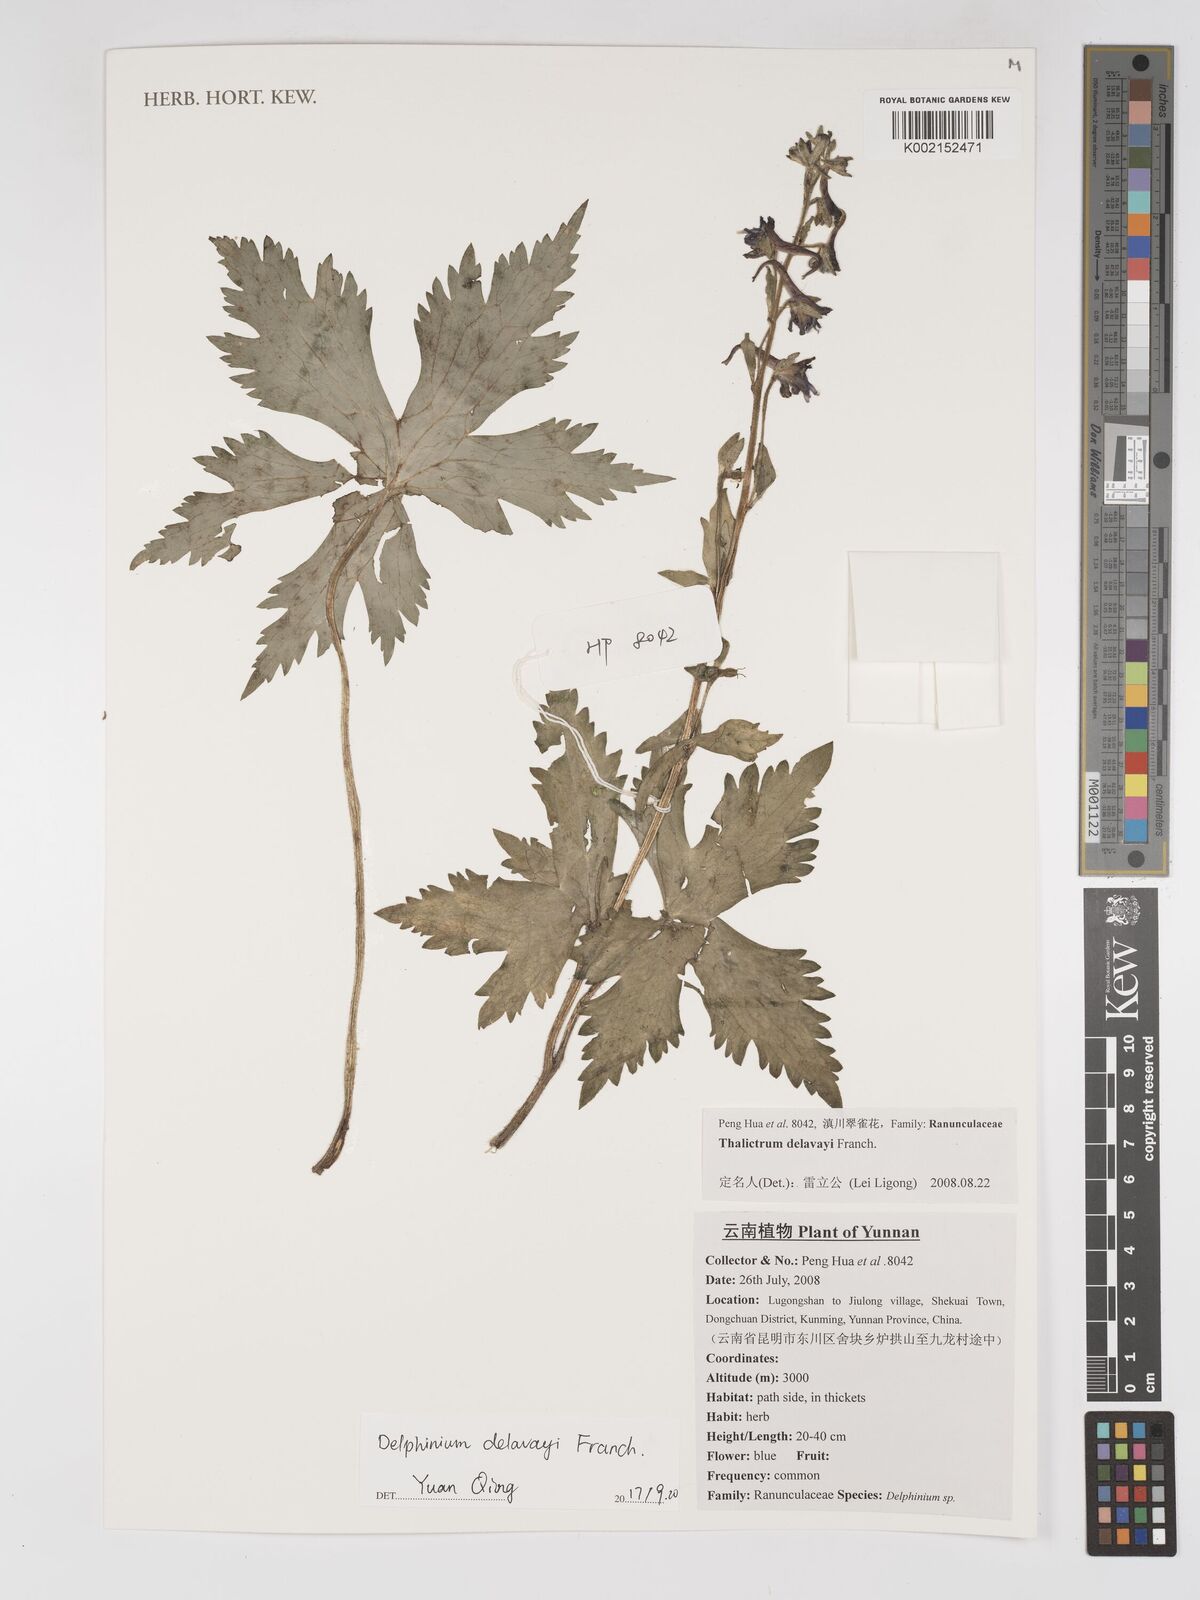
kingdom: Plantae
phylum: Tracheophyta
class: Magnoliopsida
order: Ranunculales
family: Ranunculaceae
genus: Delphinium
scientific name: Delphinium delavayi
